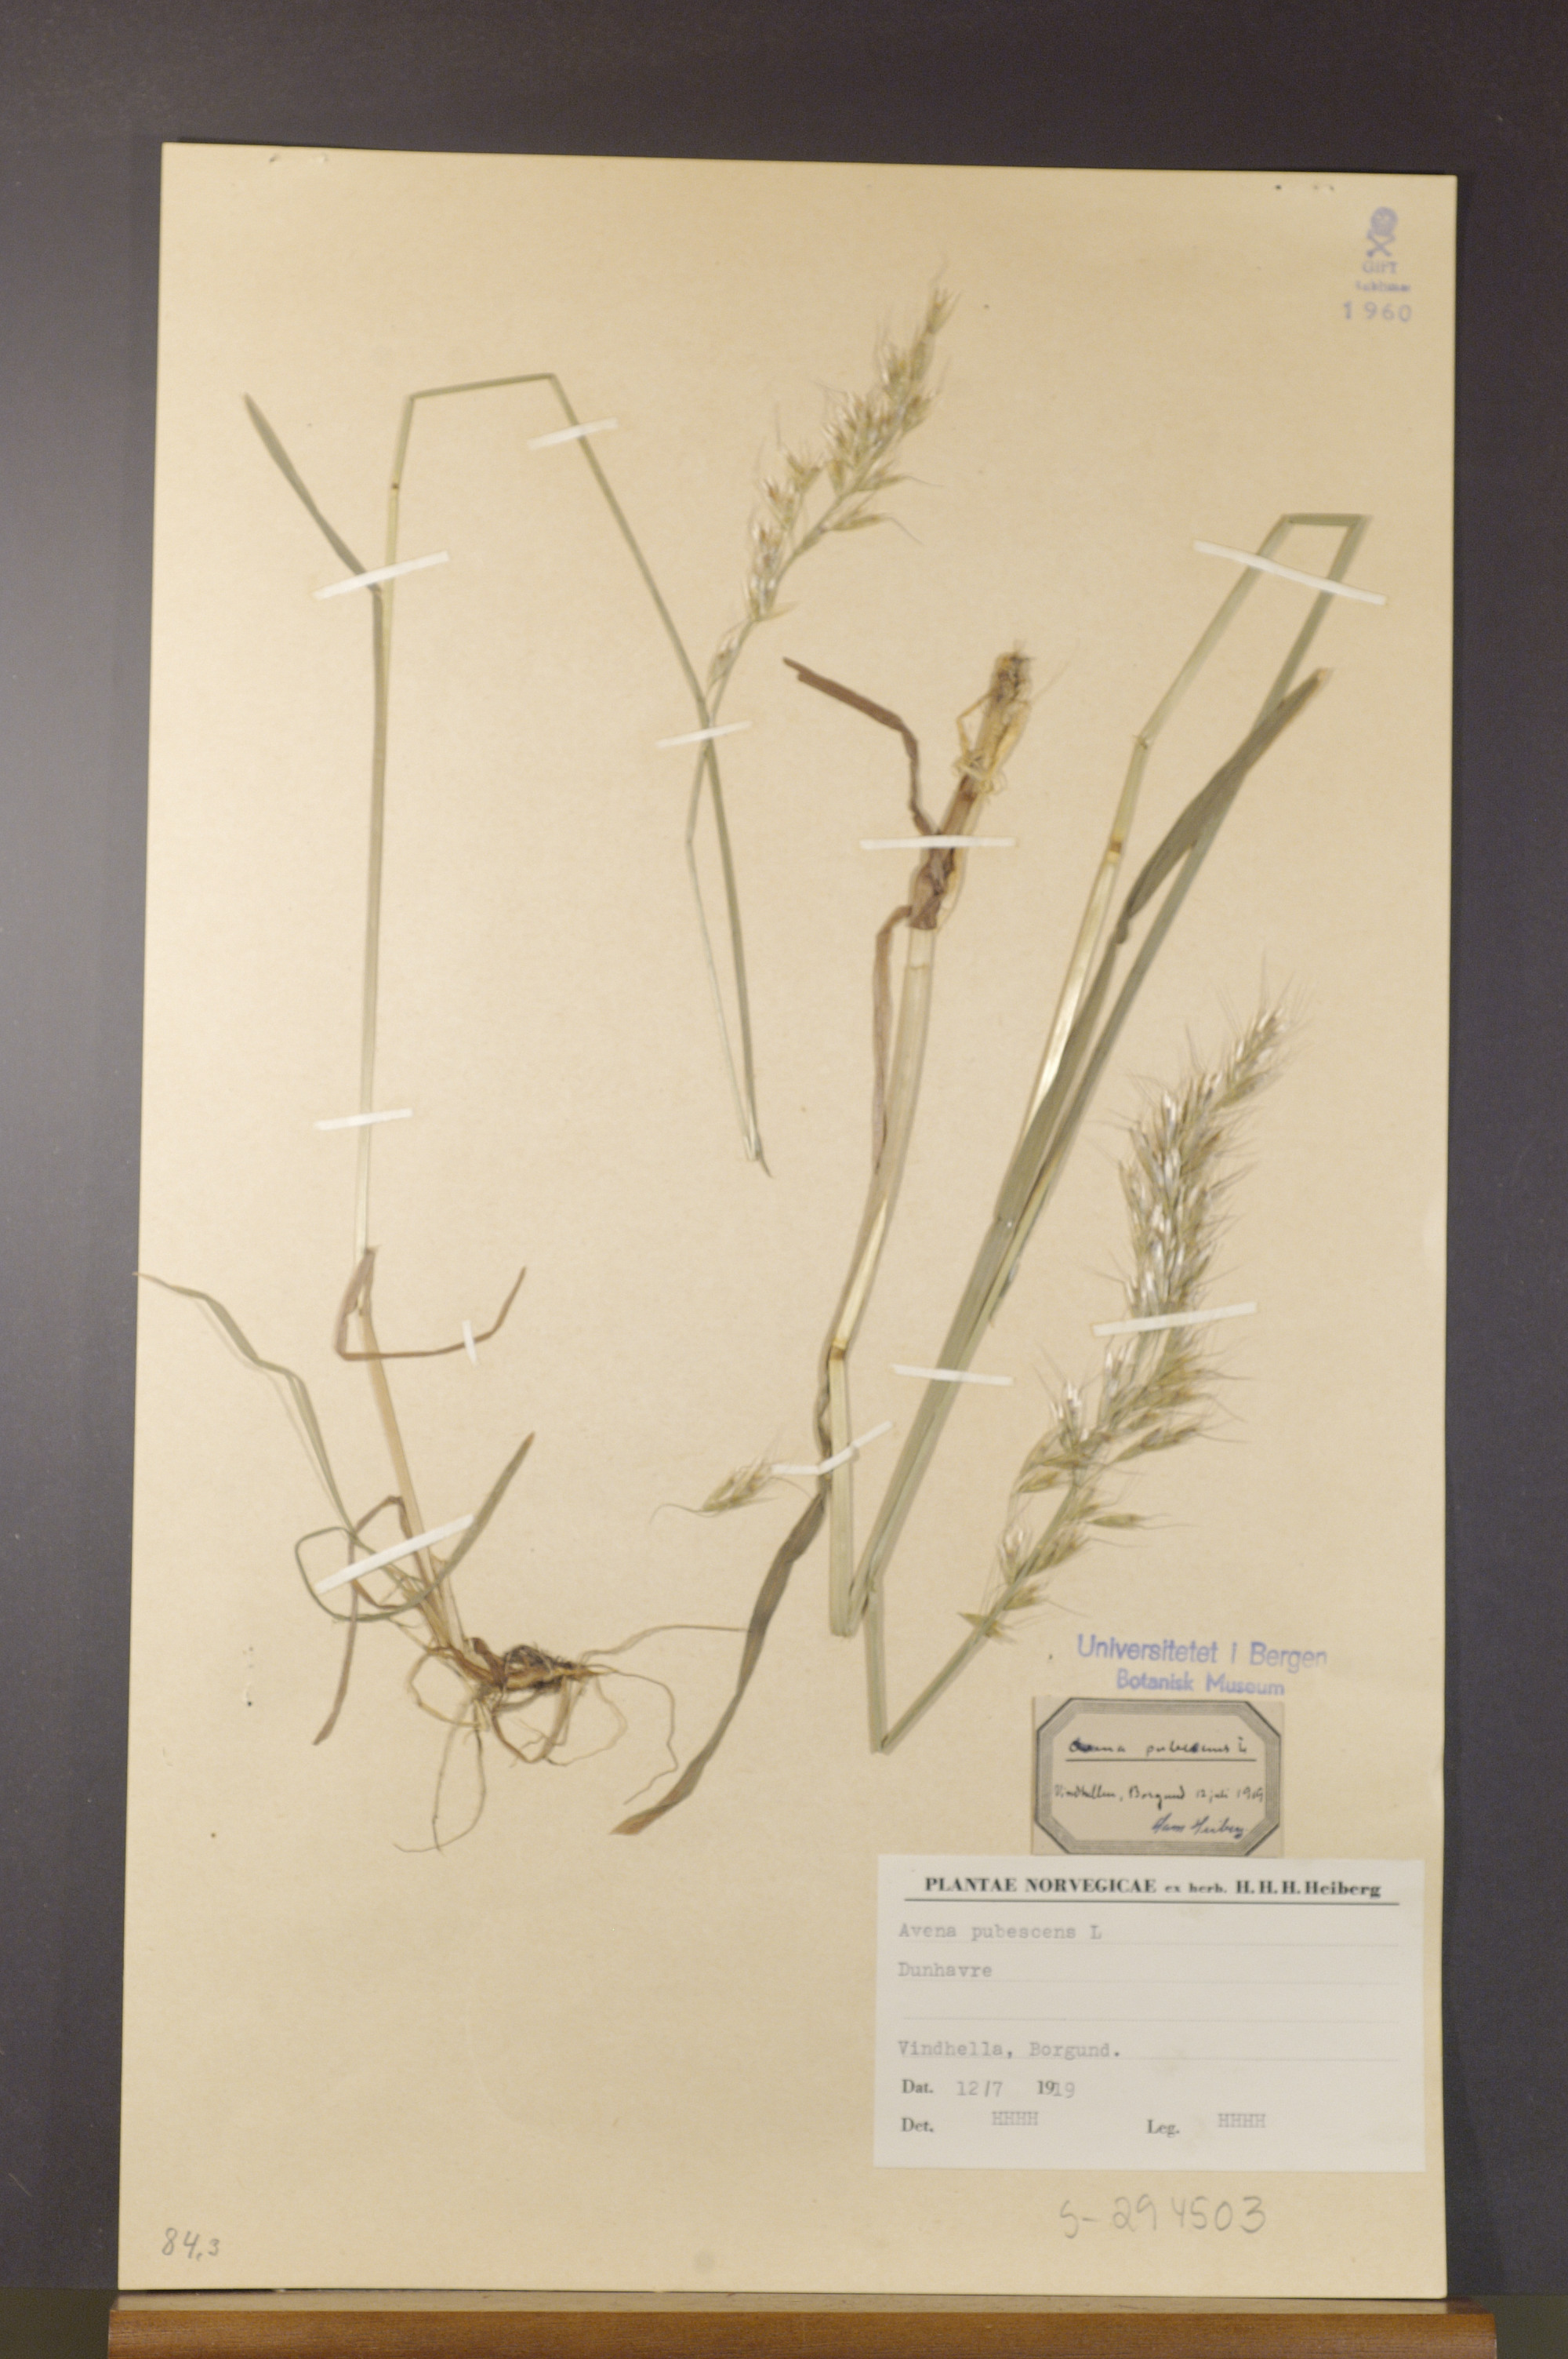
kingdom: Plantae
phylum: Tracheophyta
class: Liliopsida
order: Poales
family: Poaceae
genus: Avenula
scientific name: Avenula pubescens
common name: Downy alpine oatgrass
